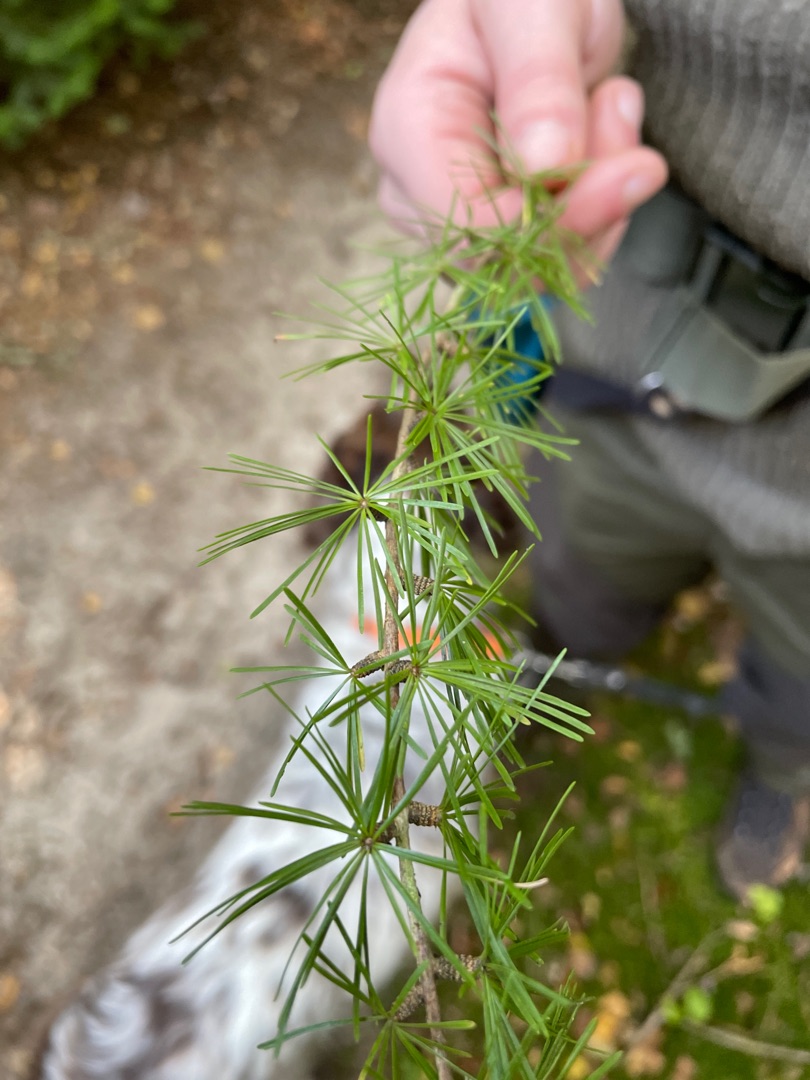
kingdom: Plantae
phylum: Tracheophyta
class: Pinopsida
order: Pinales
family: Pinaceae
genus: Larix
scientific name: Larix
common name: Lærkeslægten
